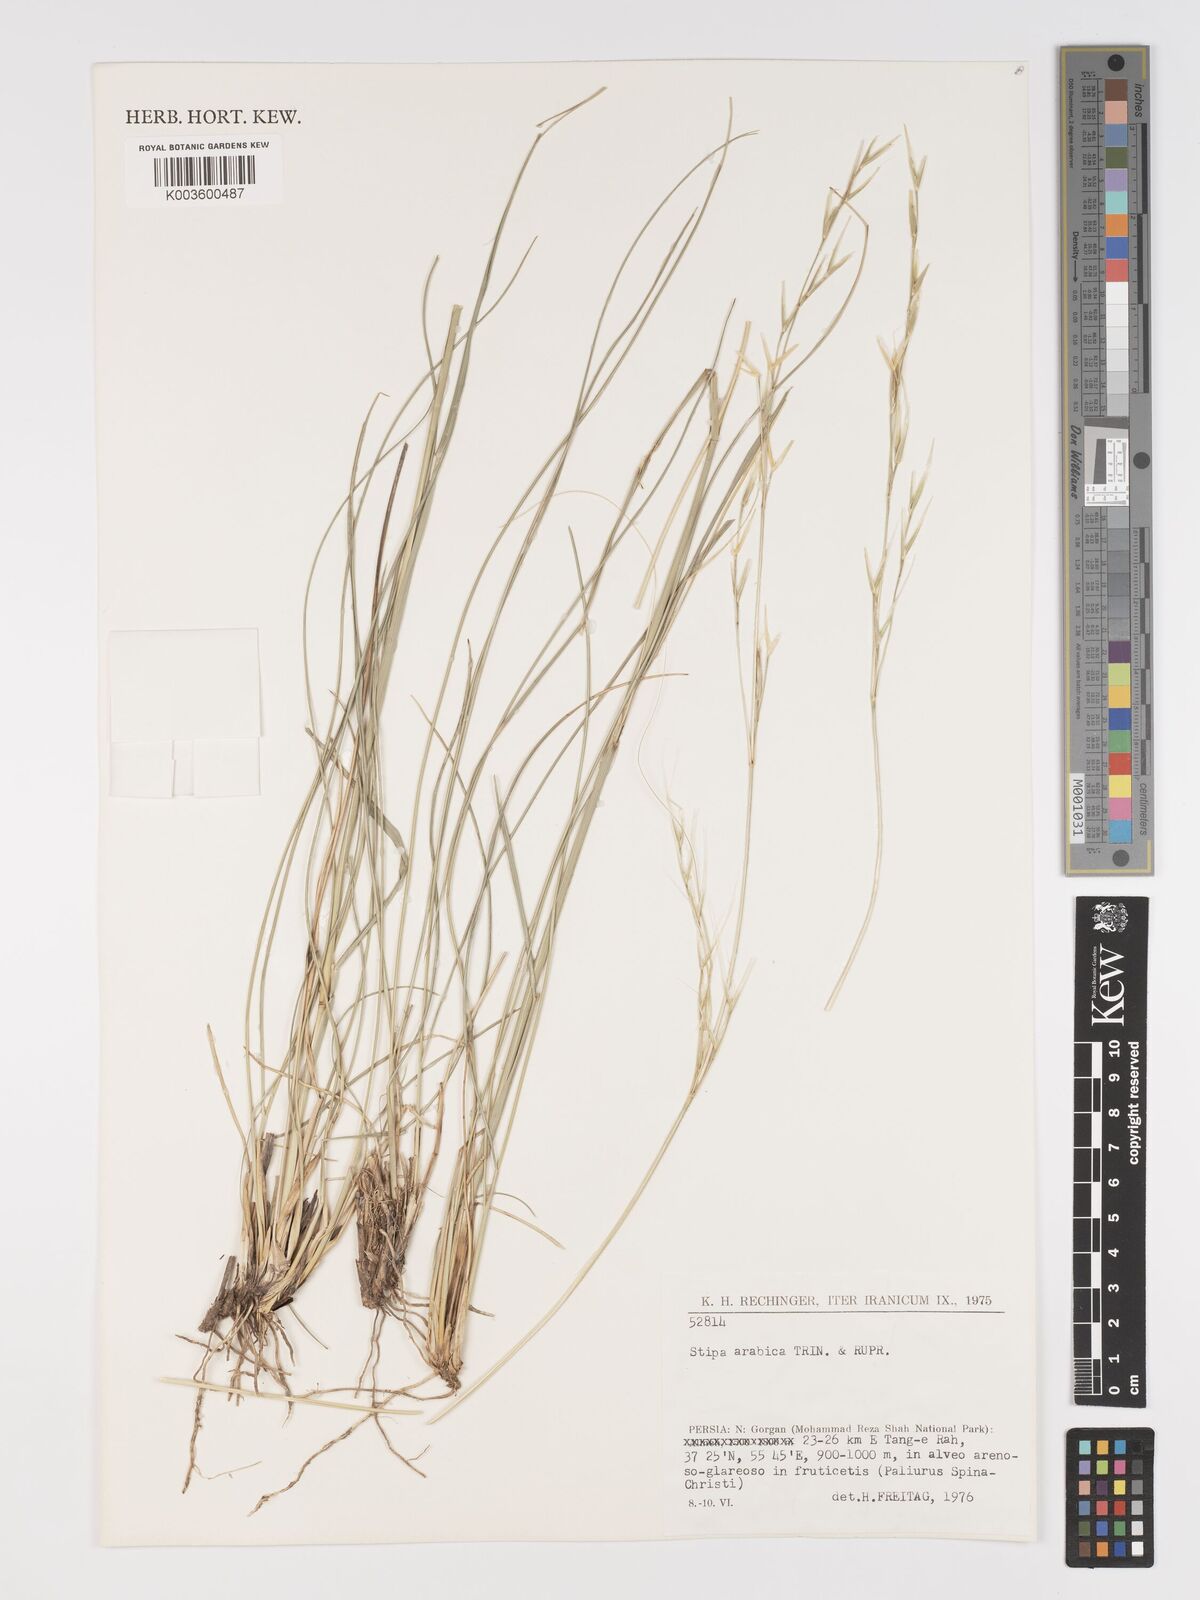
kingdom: Plantae
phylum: Tracheophyta
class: Liliopsida
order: Poales
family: Poaceae
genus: Stipa
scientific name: Stipa arabica
